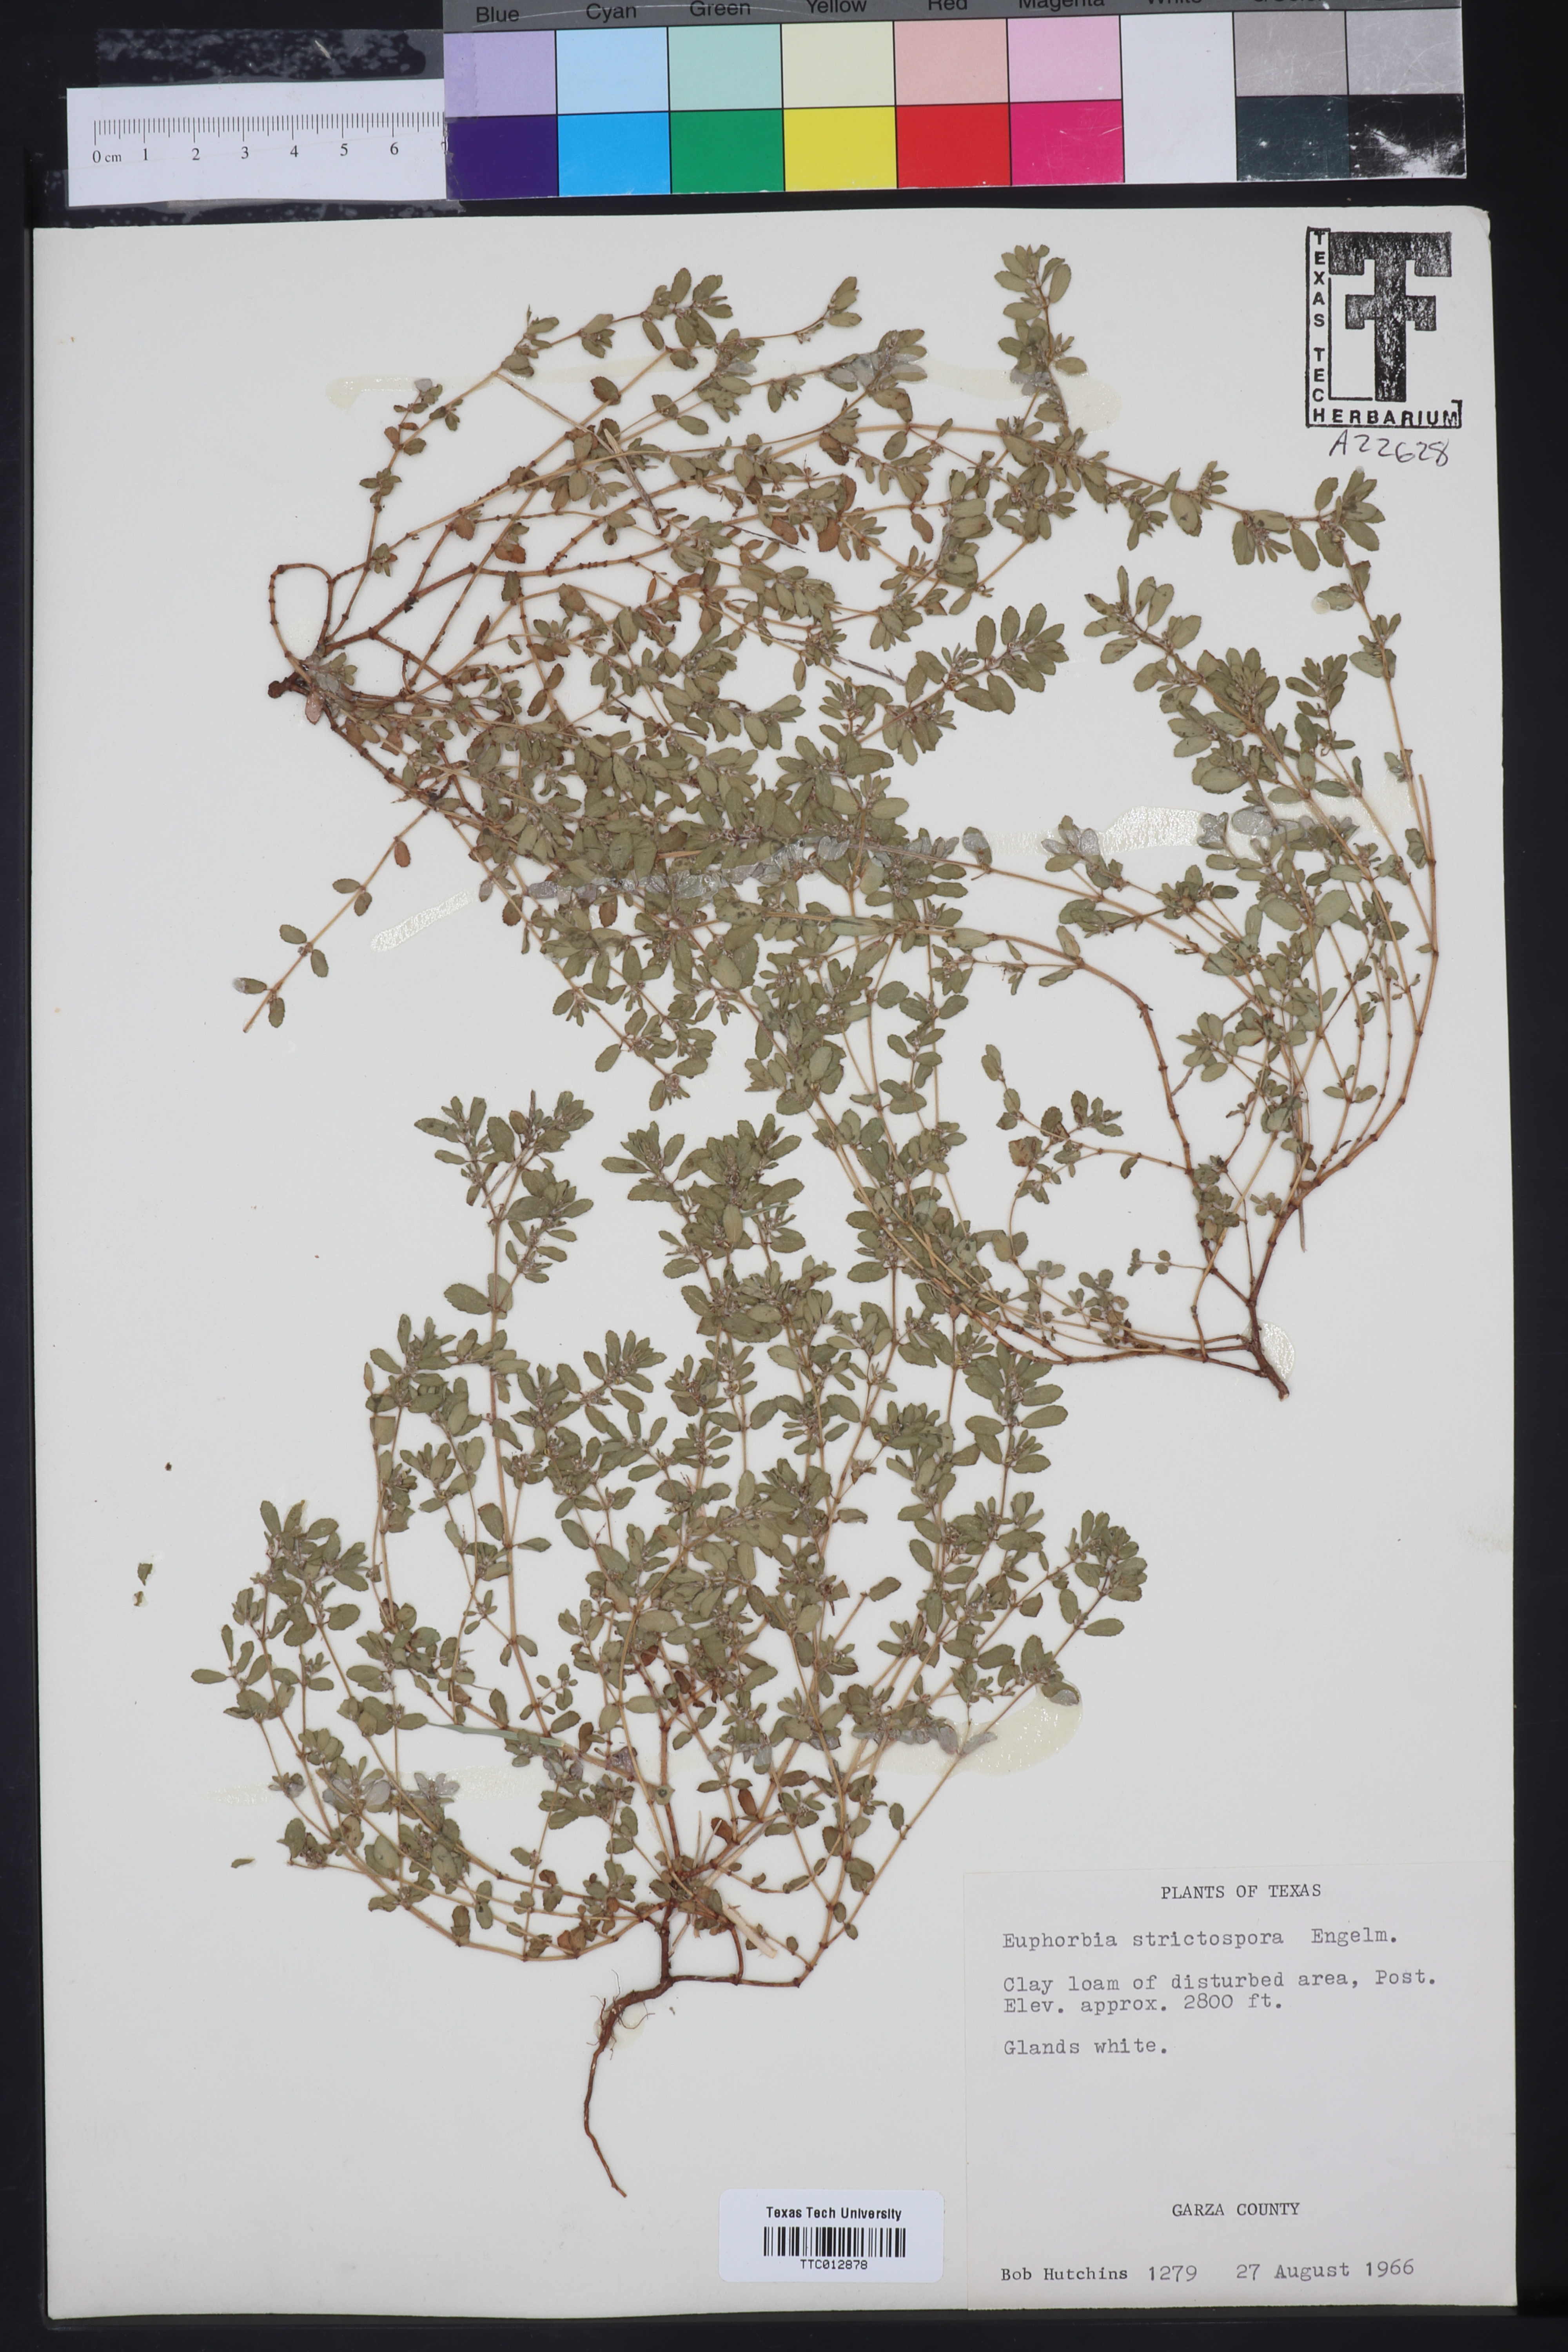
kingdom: Plantae
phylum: Tracheophyta
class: Magnoliopsida
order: Malpighiales
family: Euphorbiaceae
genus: Euphorbia
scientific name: Euphorbia
